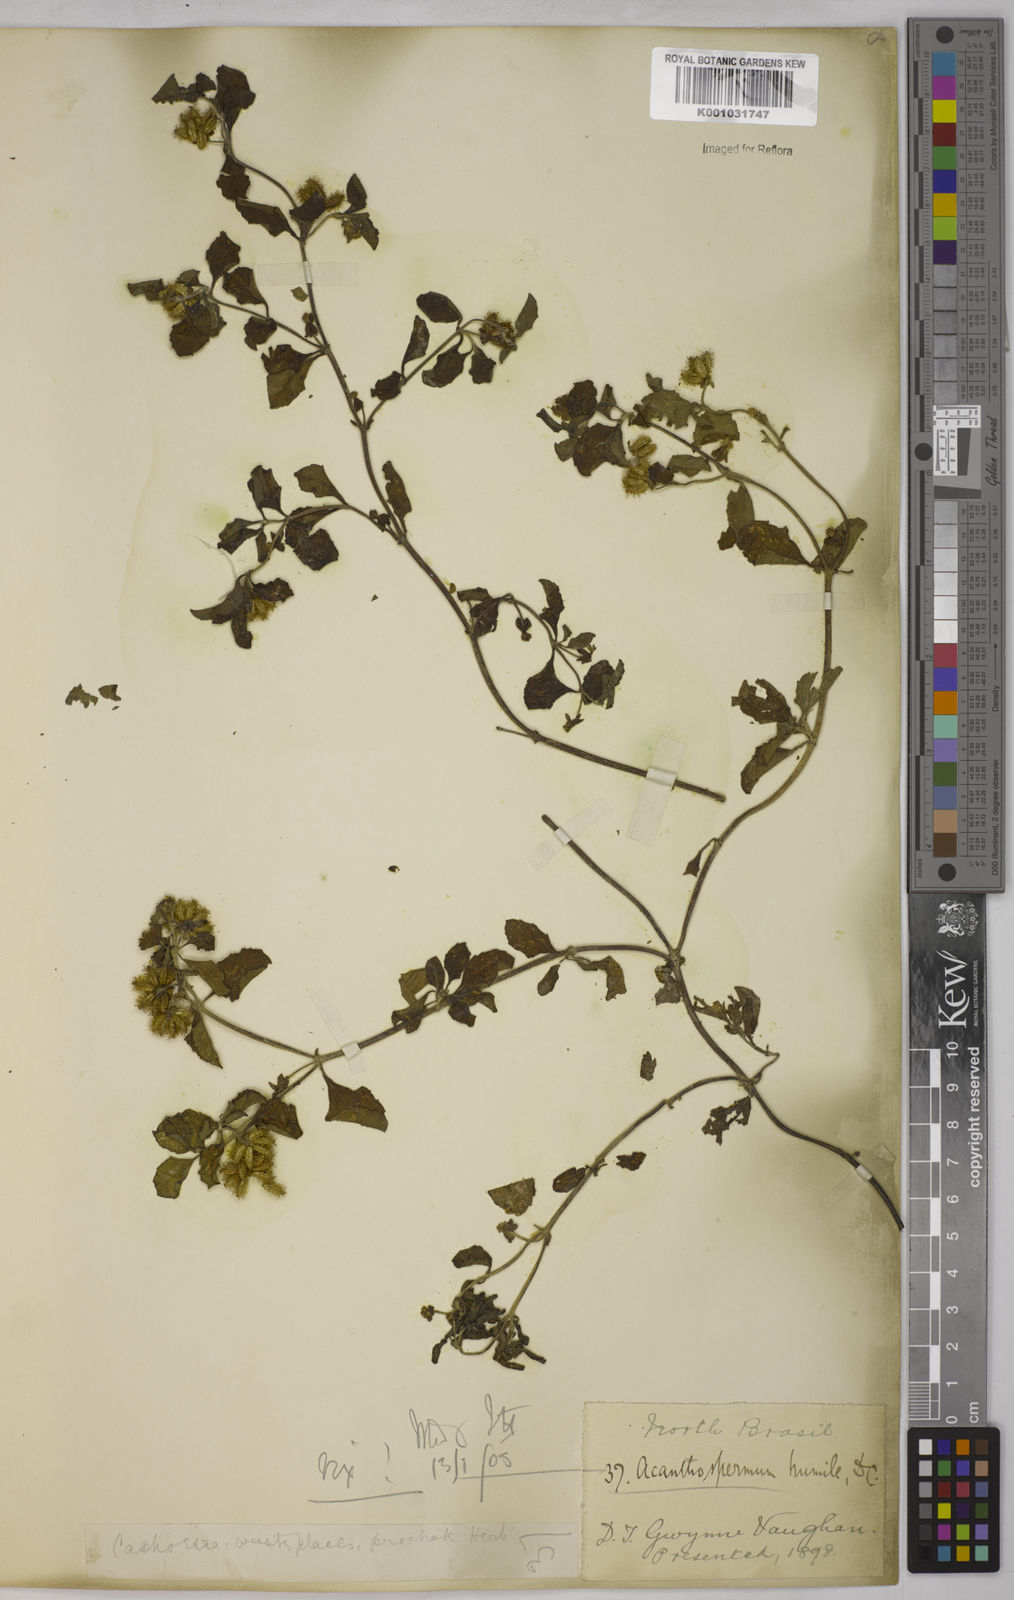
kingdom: Plantae
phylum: Tracheophyta
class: Magnoliopsida
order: Asterales
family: Asteraceae
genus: Acanthospermum
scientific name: Acanthospermum australe
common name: Paraguayan starbur
